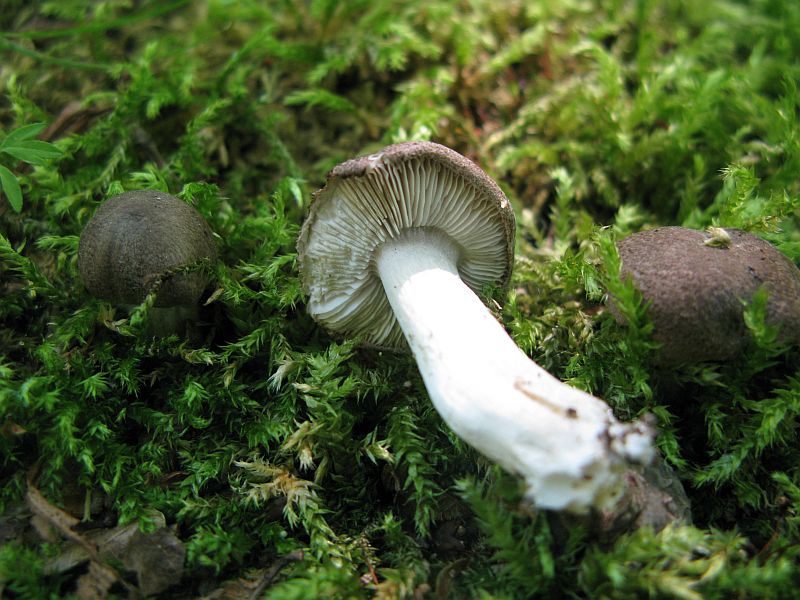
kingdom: Fungi
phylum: Basidiomycota
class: Agaricomycetes
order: Agaricales
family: Tricholomataceae
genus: Tricholoma
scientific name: Tricholoma scalpturatum
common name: gulplettet ridderhat
